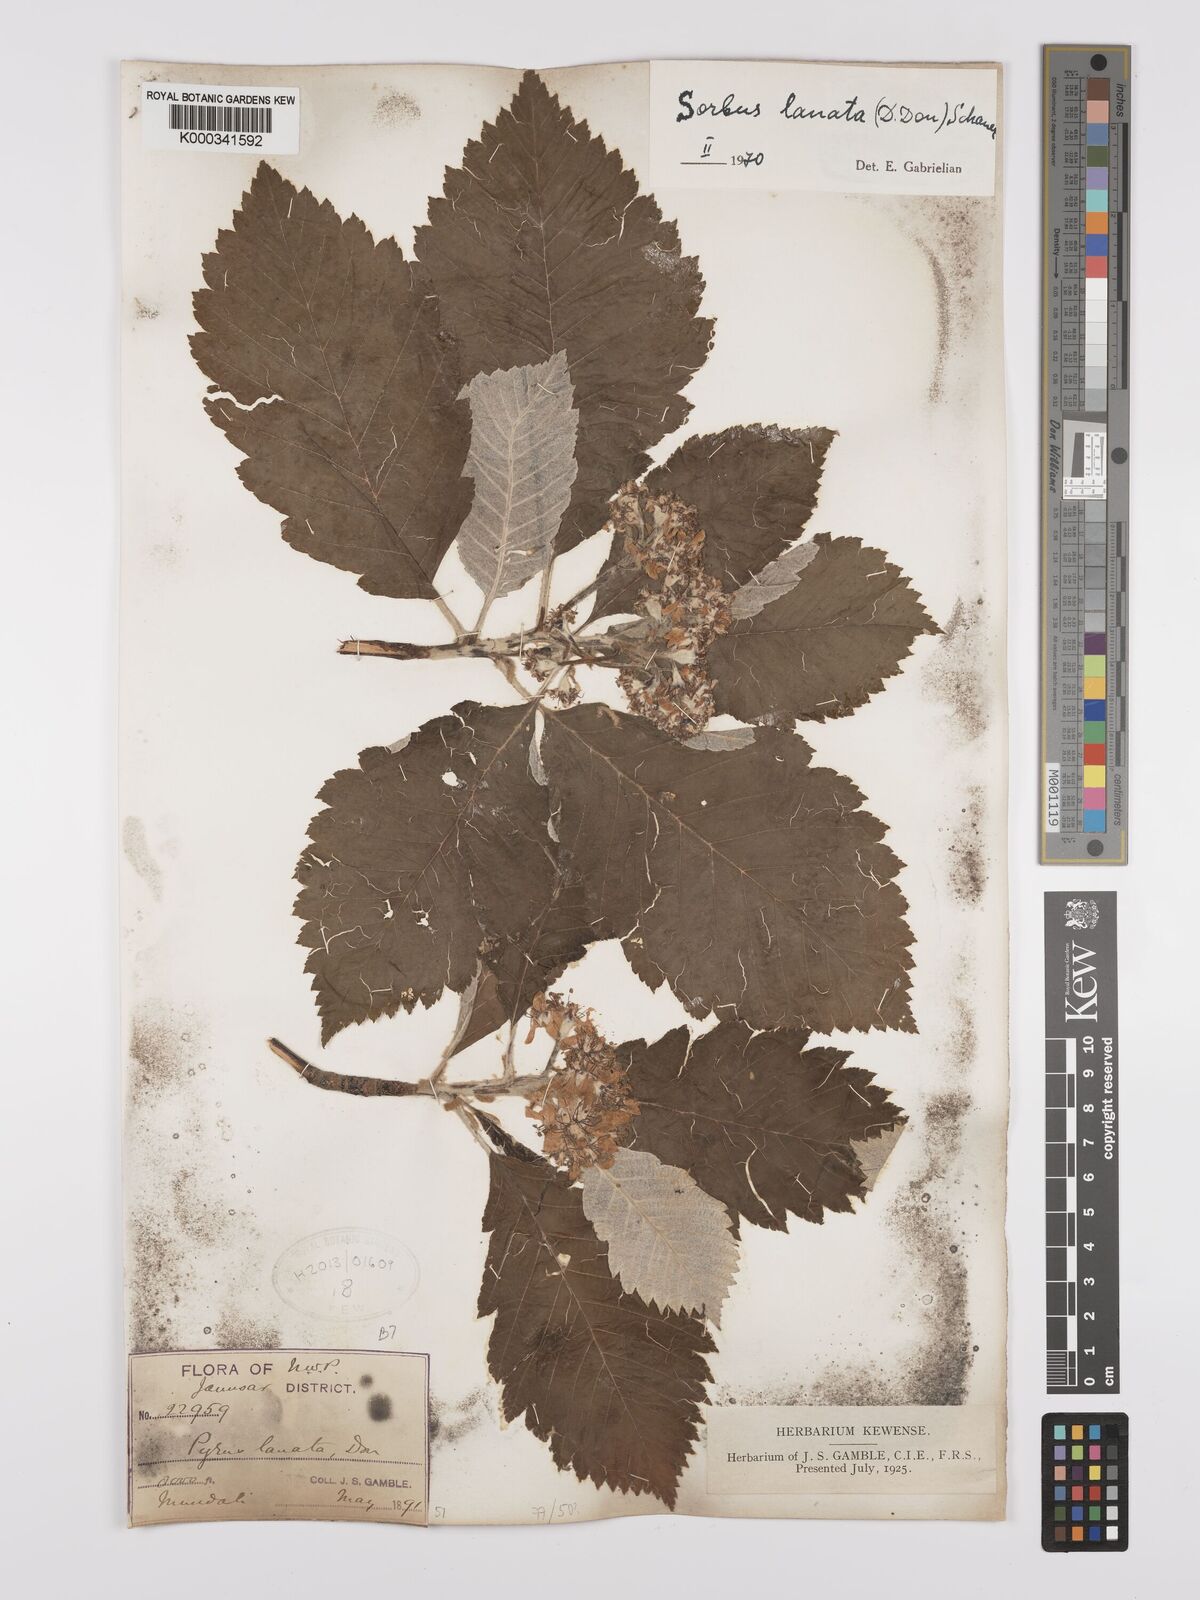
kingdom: Plantae
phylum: Tracheophyta
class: Magnoliopsida
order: Rosales
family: Rosaceae
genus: Sorbus
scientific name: Sorbus lanata
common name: Hairy rowan
